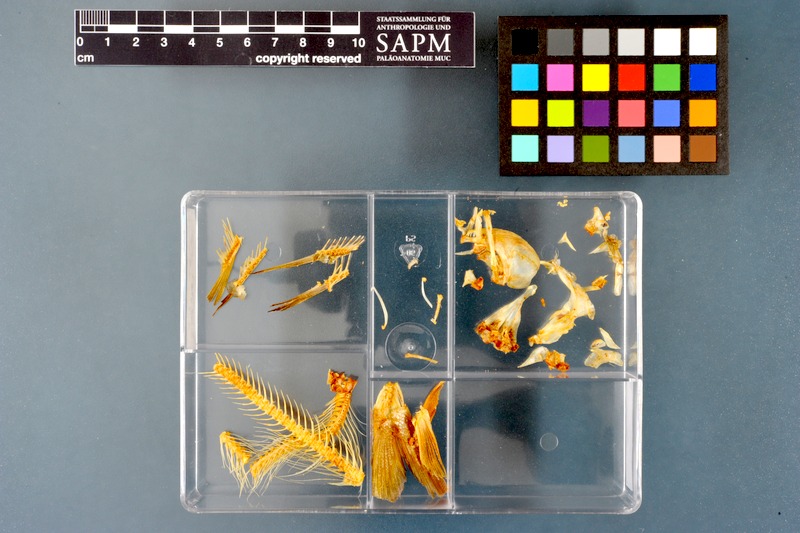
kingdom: Animalia
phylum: Chordata
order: Salmoniformes
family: Salmonidae
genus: Thymallus
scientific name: Thymallus thymallus
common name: Grayling
